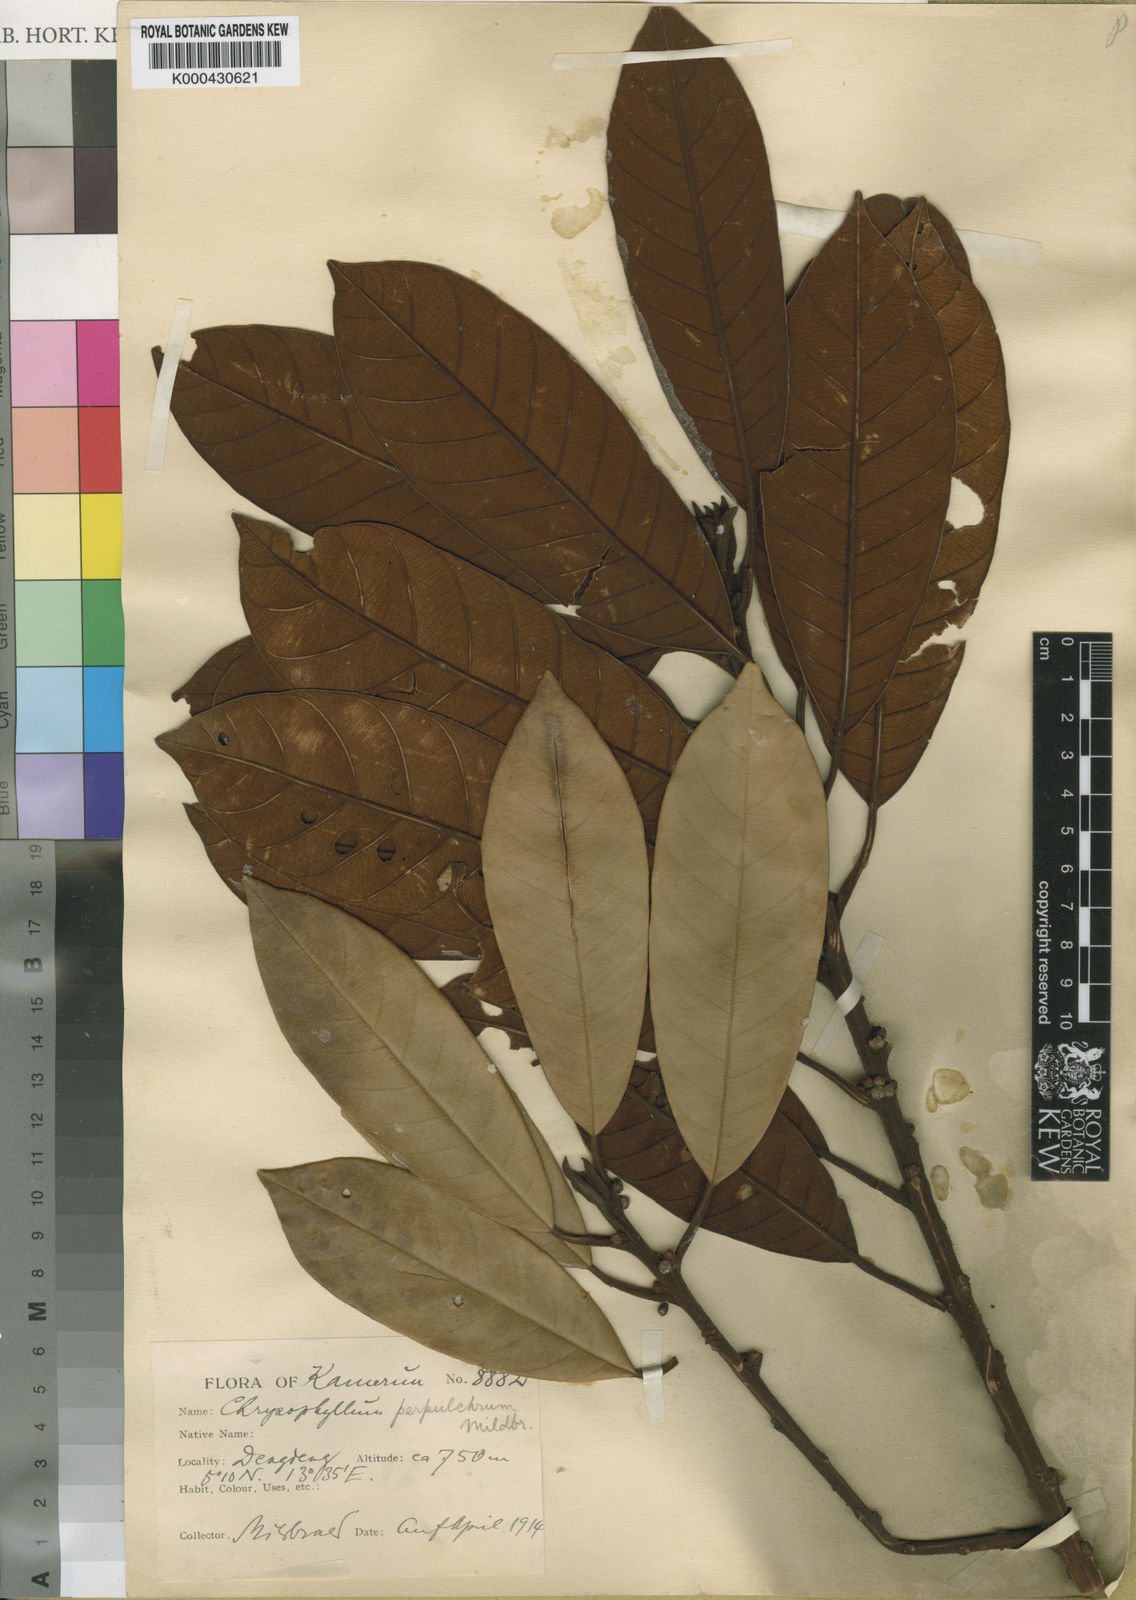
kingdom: Plantae
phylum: Tracheophyta
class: Magnoliopsida
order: Ericales
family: Sapotaceae
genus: Gambeya
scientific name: Gambeya perpulchra
